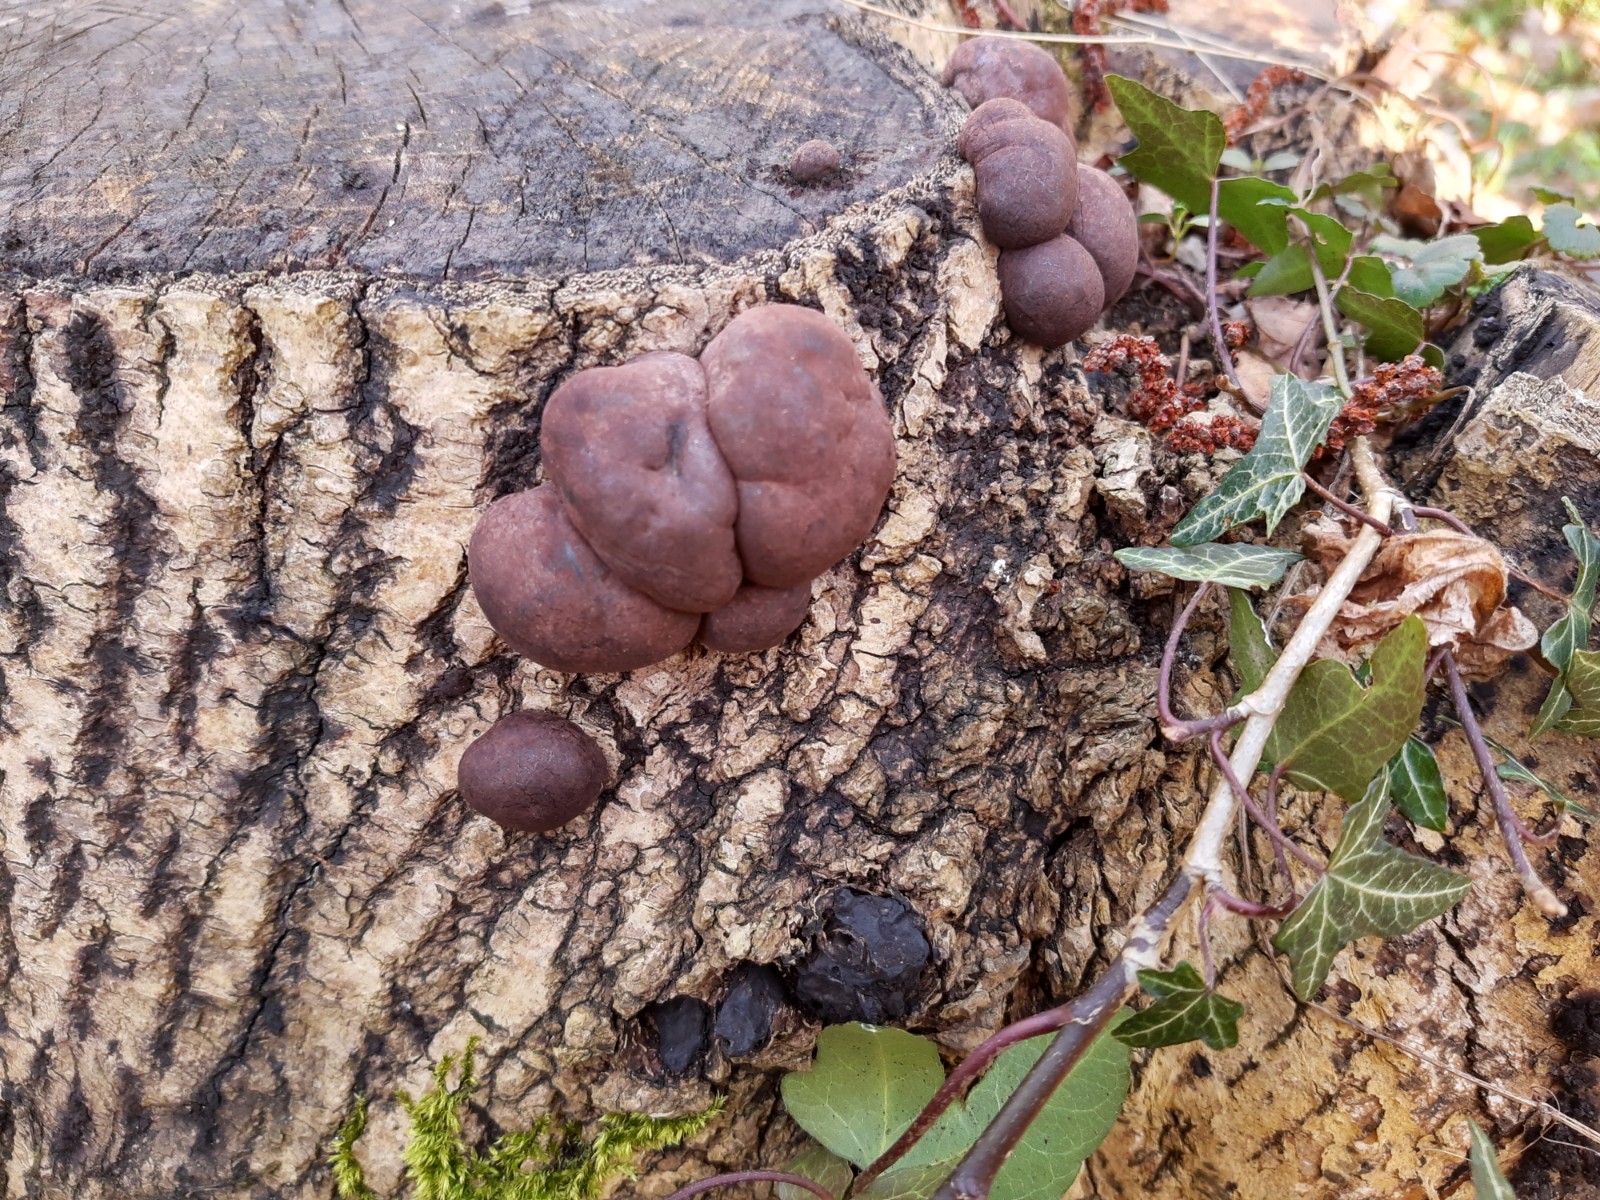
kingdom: Fungi
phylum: Ascomycota
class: Sordariomycetes
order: Xylariales
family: Hypoxylaceae
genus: Daldinia
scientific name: Daldinia concentrica
